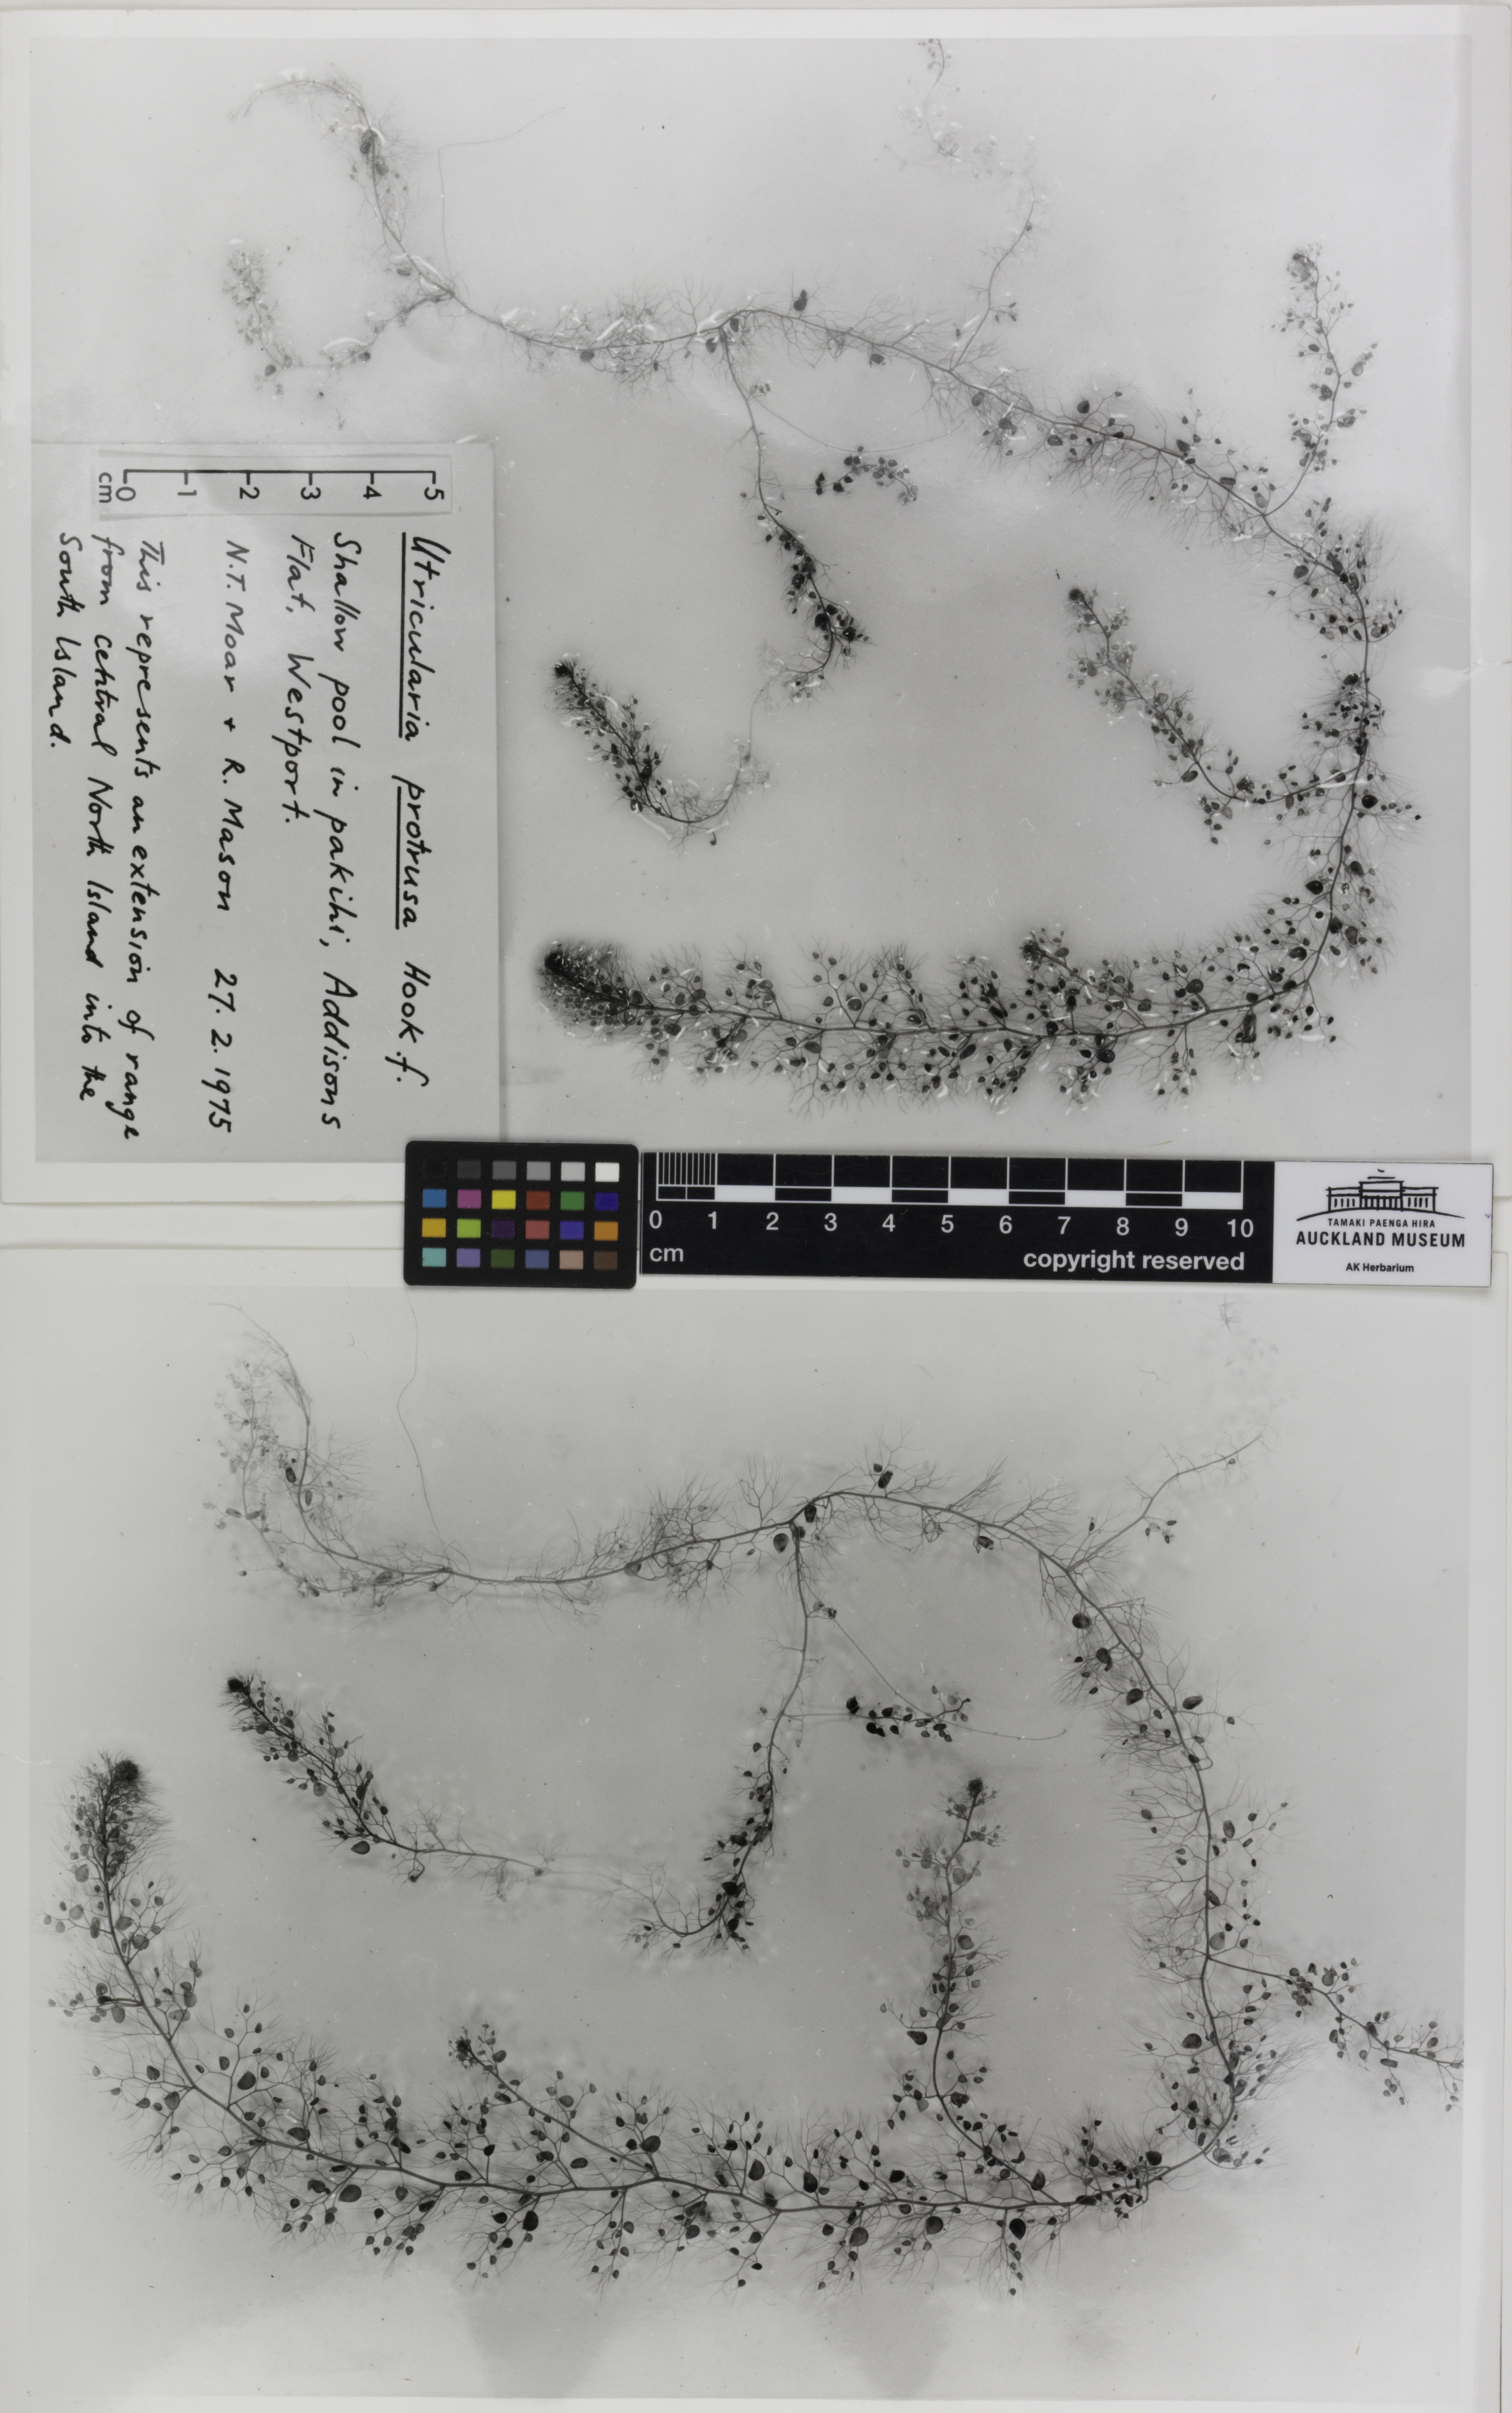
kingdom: Plantae
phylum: Tracheophyta
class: Magnoliopsida
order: Lamiales
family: Lentibulariaceae
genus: Utricularia
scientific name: Utricularia geminiscapa
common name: Hidden-fruit bladderwort
